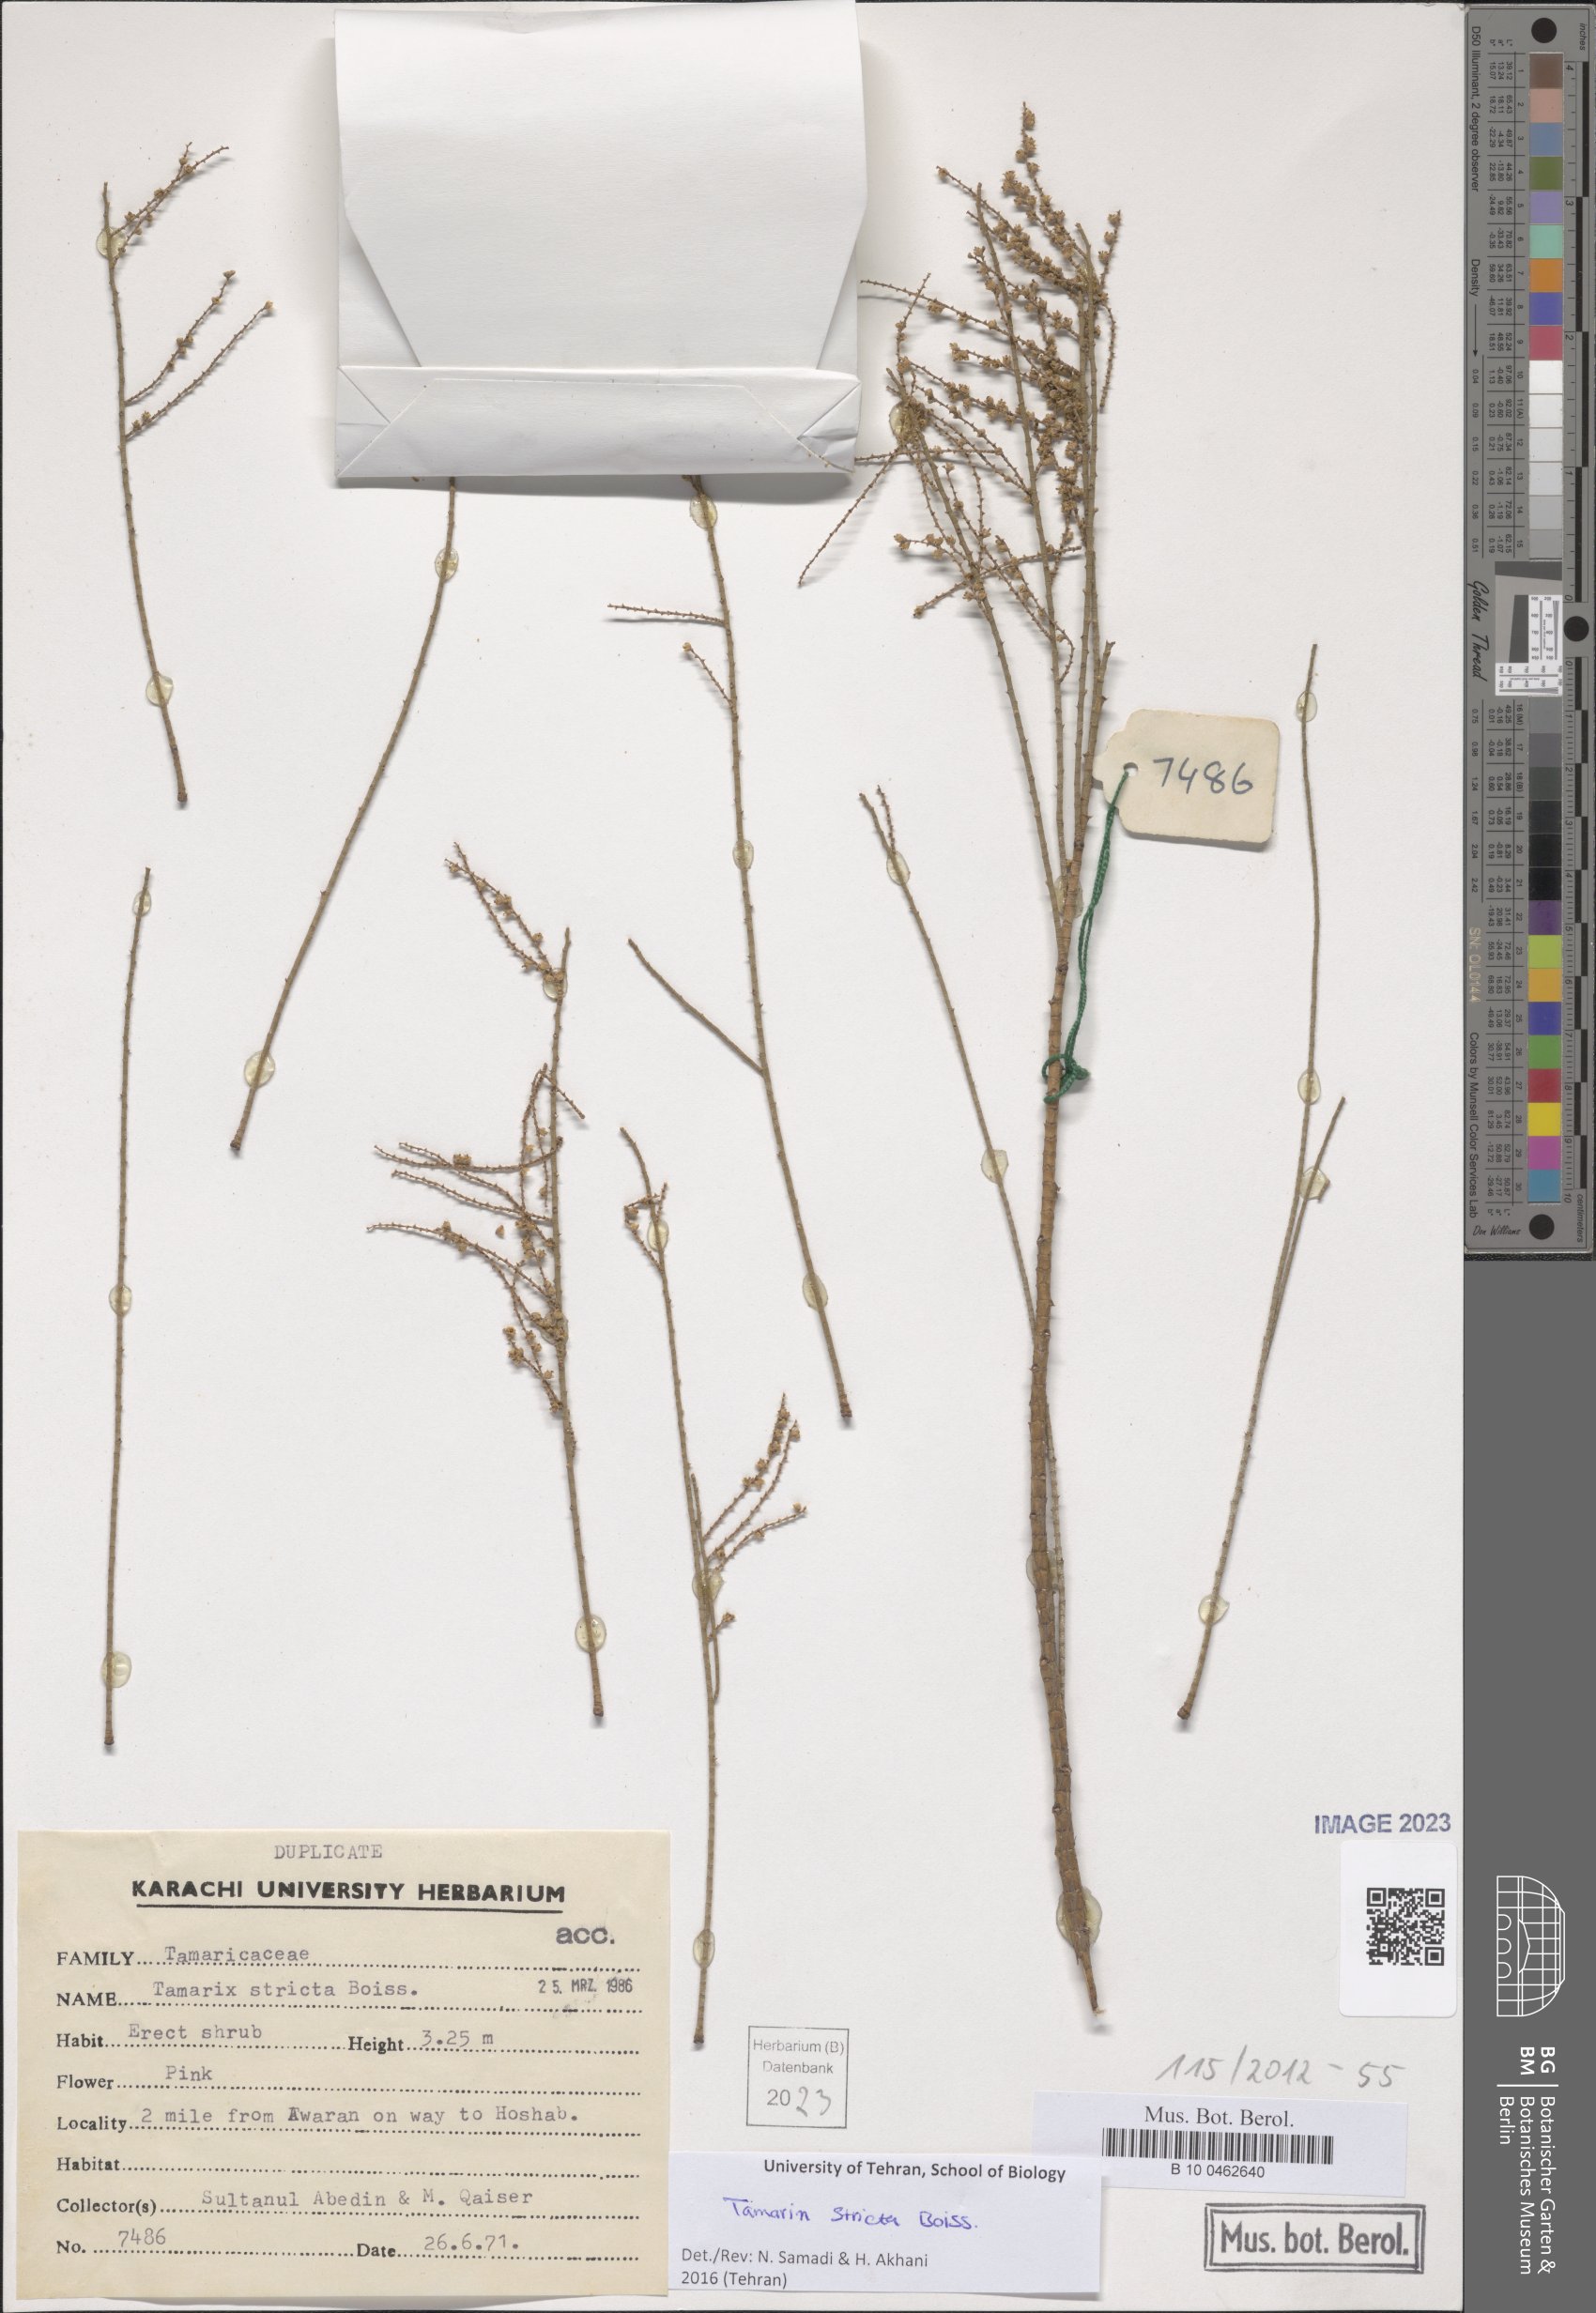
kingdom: Plantae
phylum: Tracheophyta
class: Magnoliopsida
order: Caryophyllales
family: Tamaricaceae
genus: Tamarix
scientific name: Tamarix stricta
